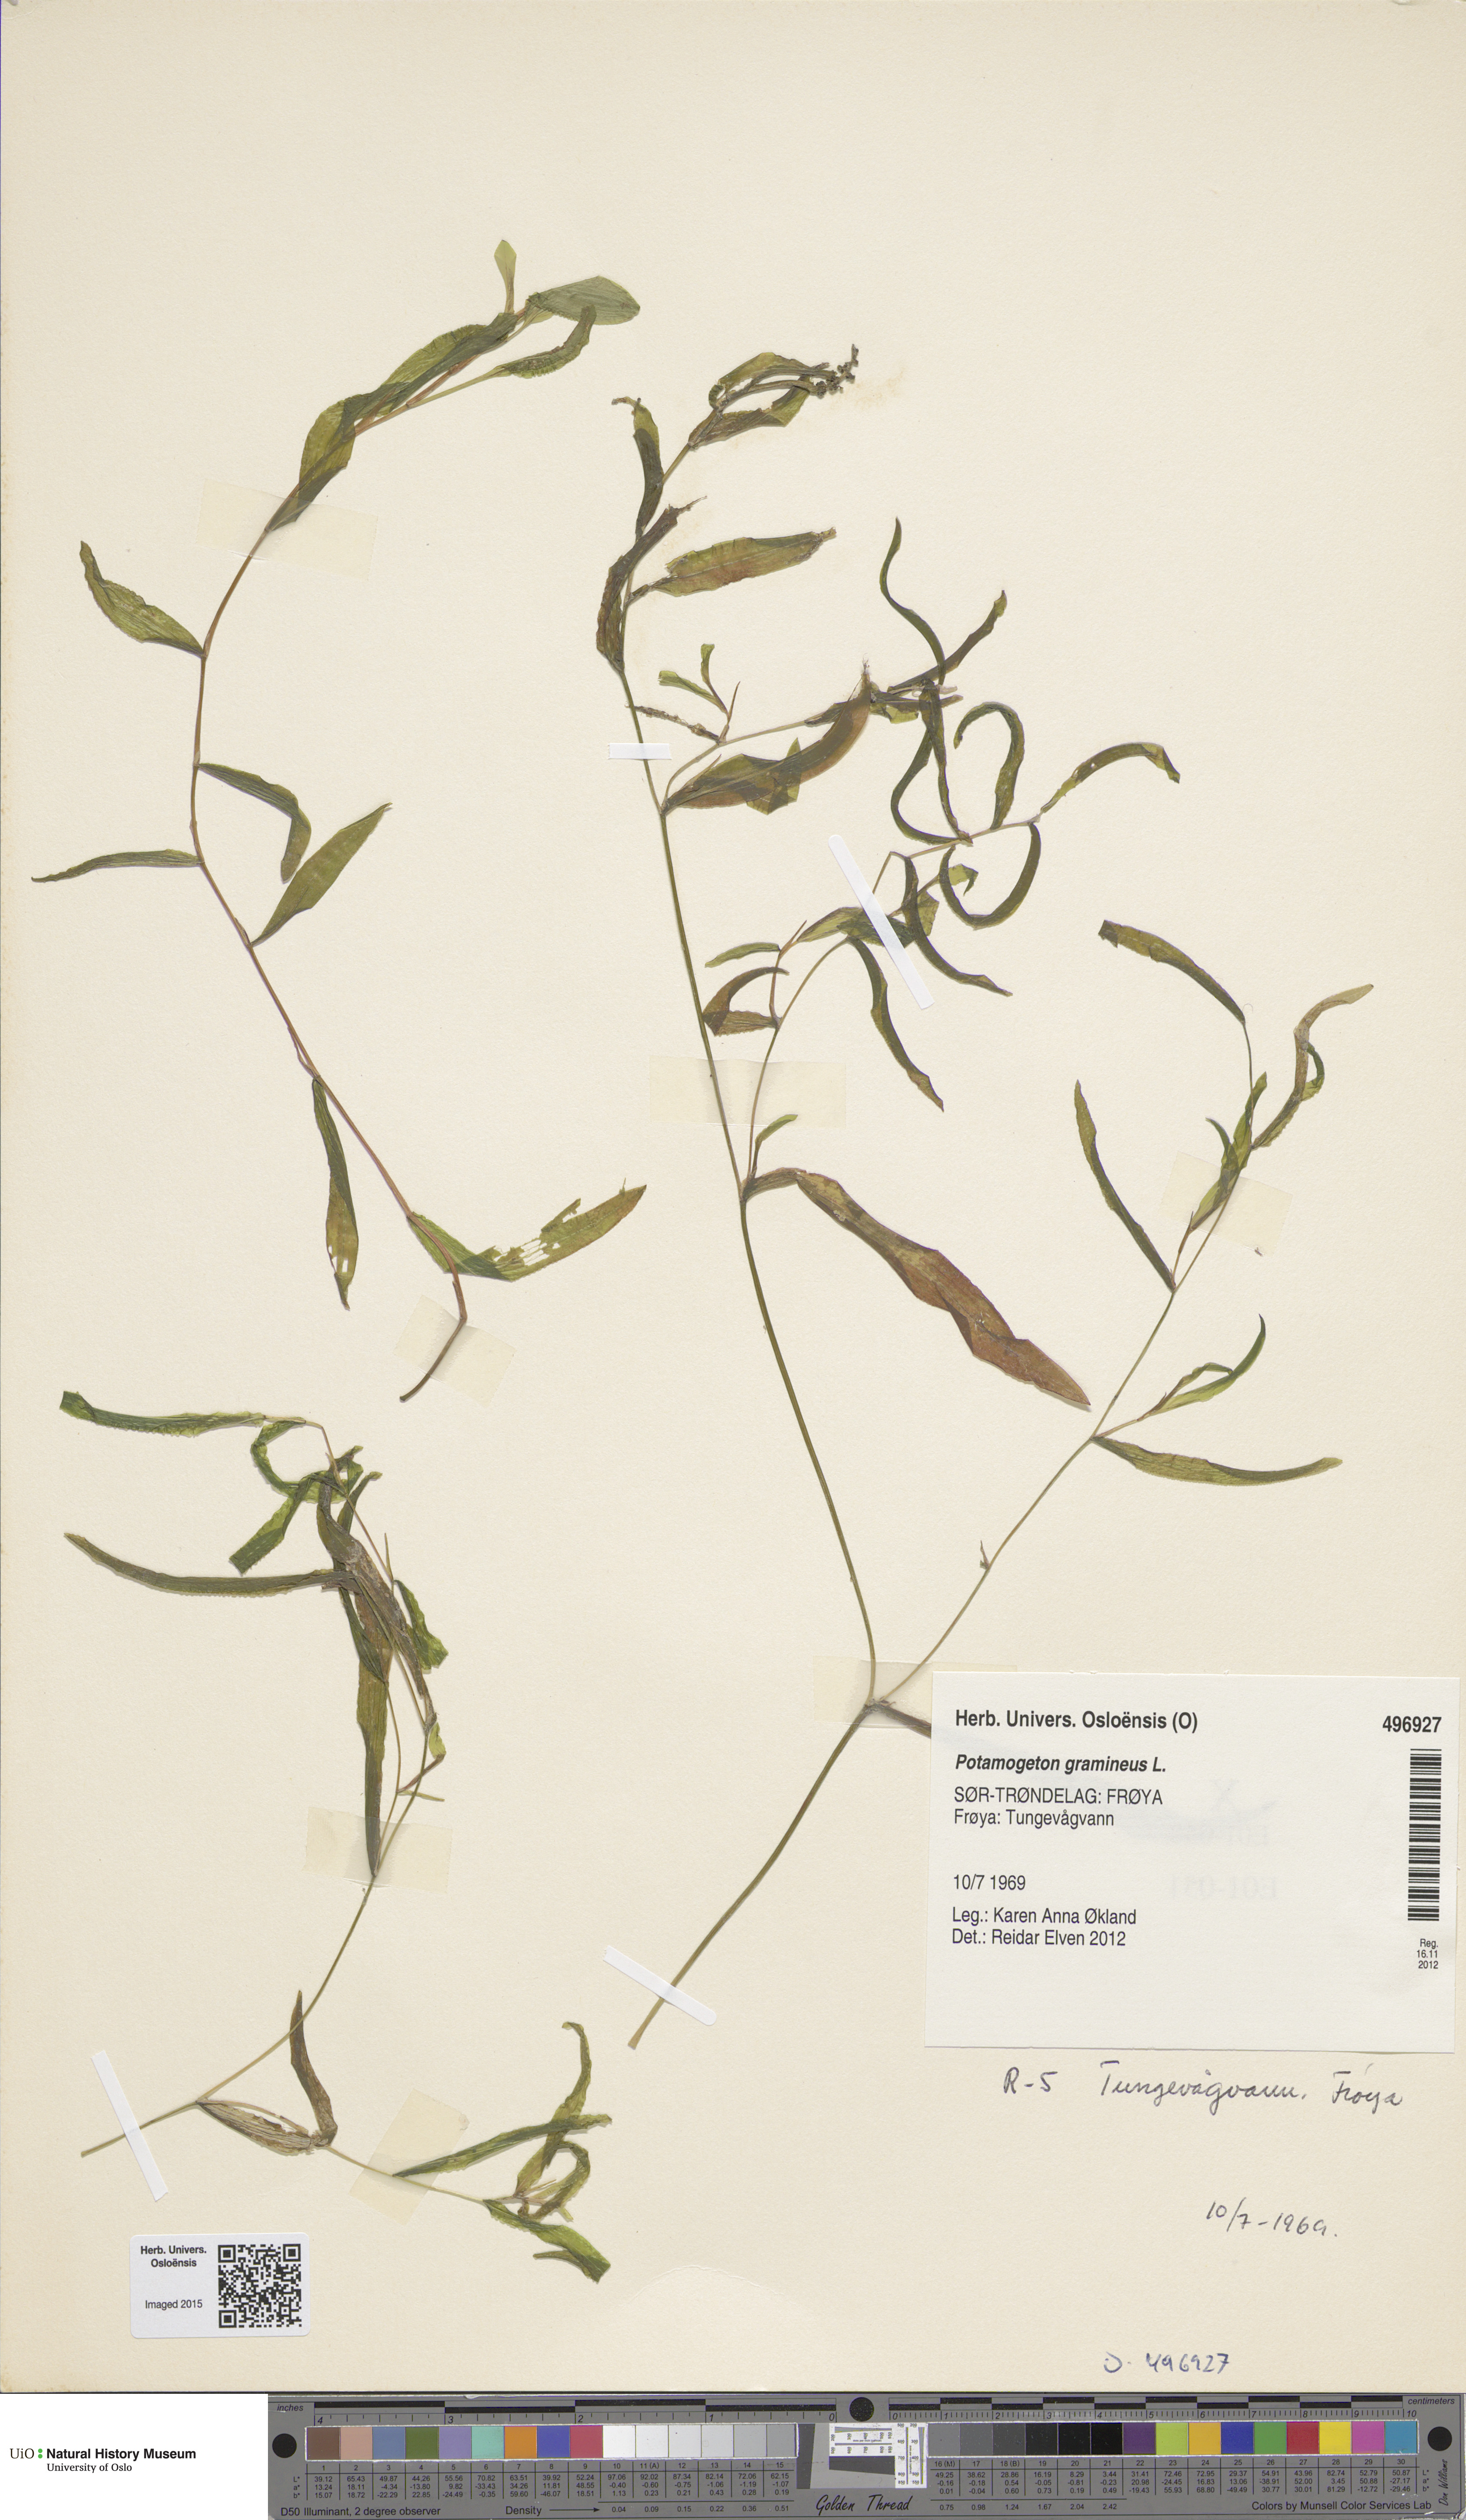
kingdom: Plantae
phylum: Tracheophyta
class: Liliopsida
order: Alismatales
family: Potamogetonaceae
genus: Potamogeton
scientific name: Potamogeton gramineus
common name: Various-leaved pondweed
